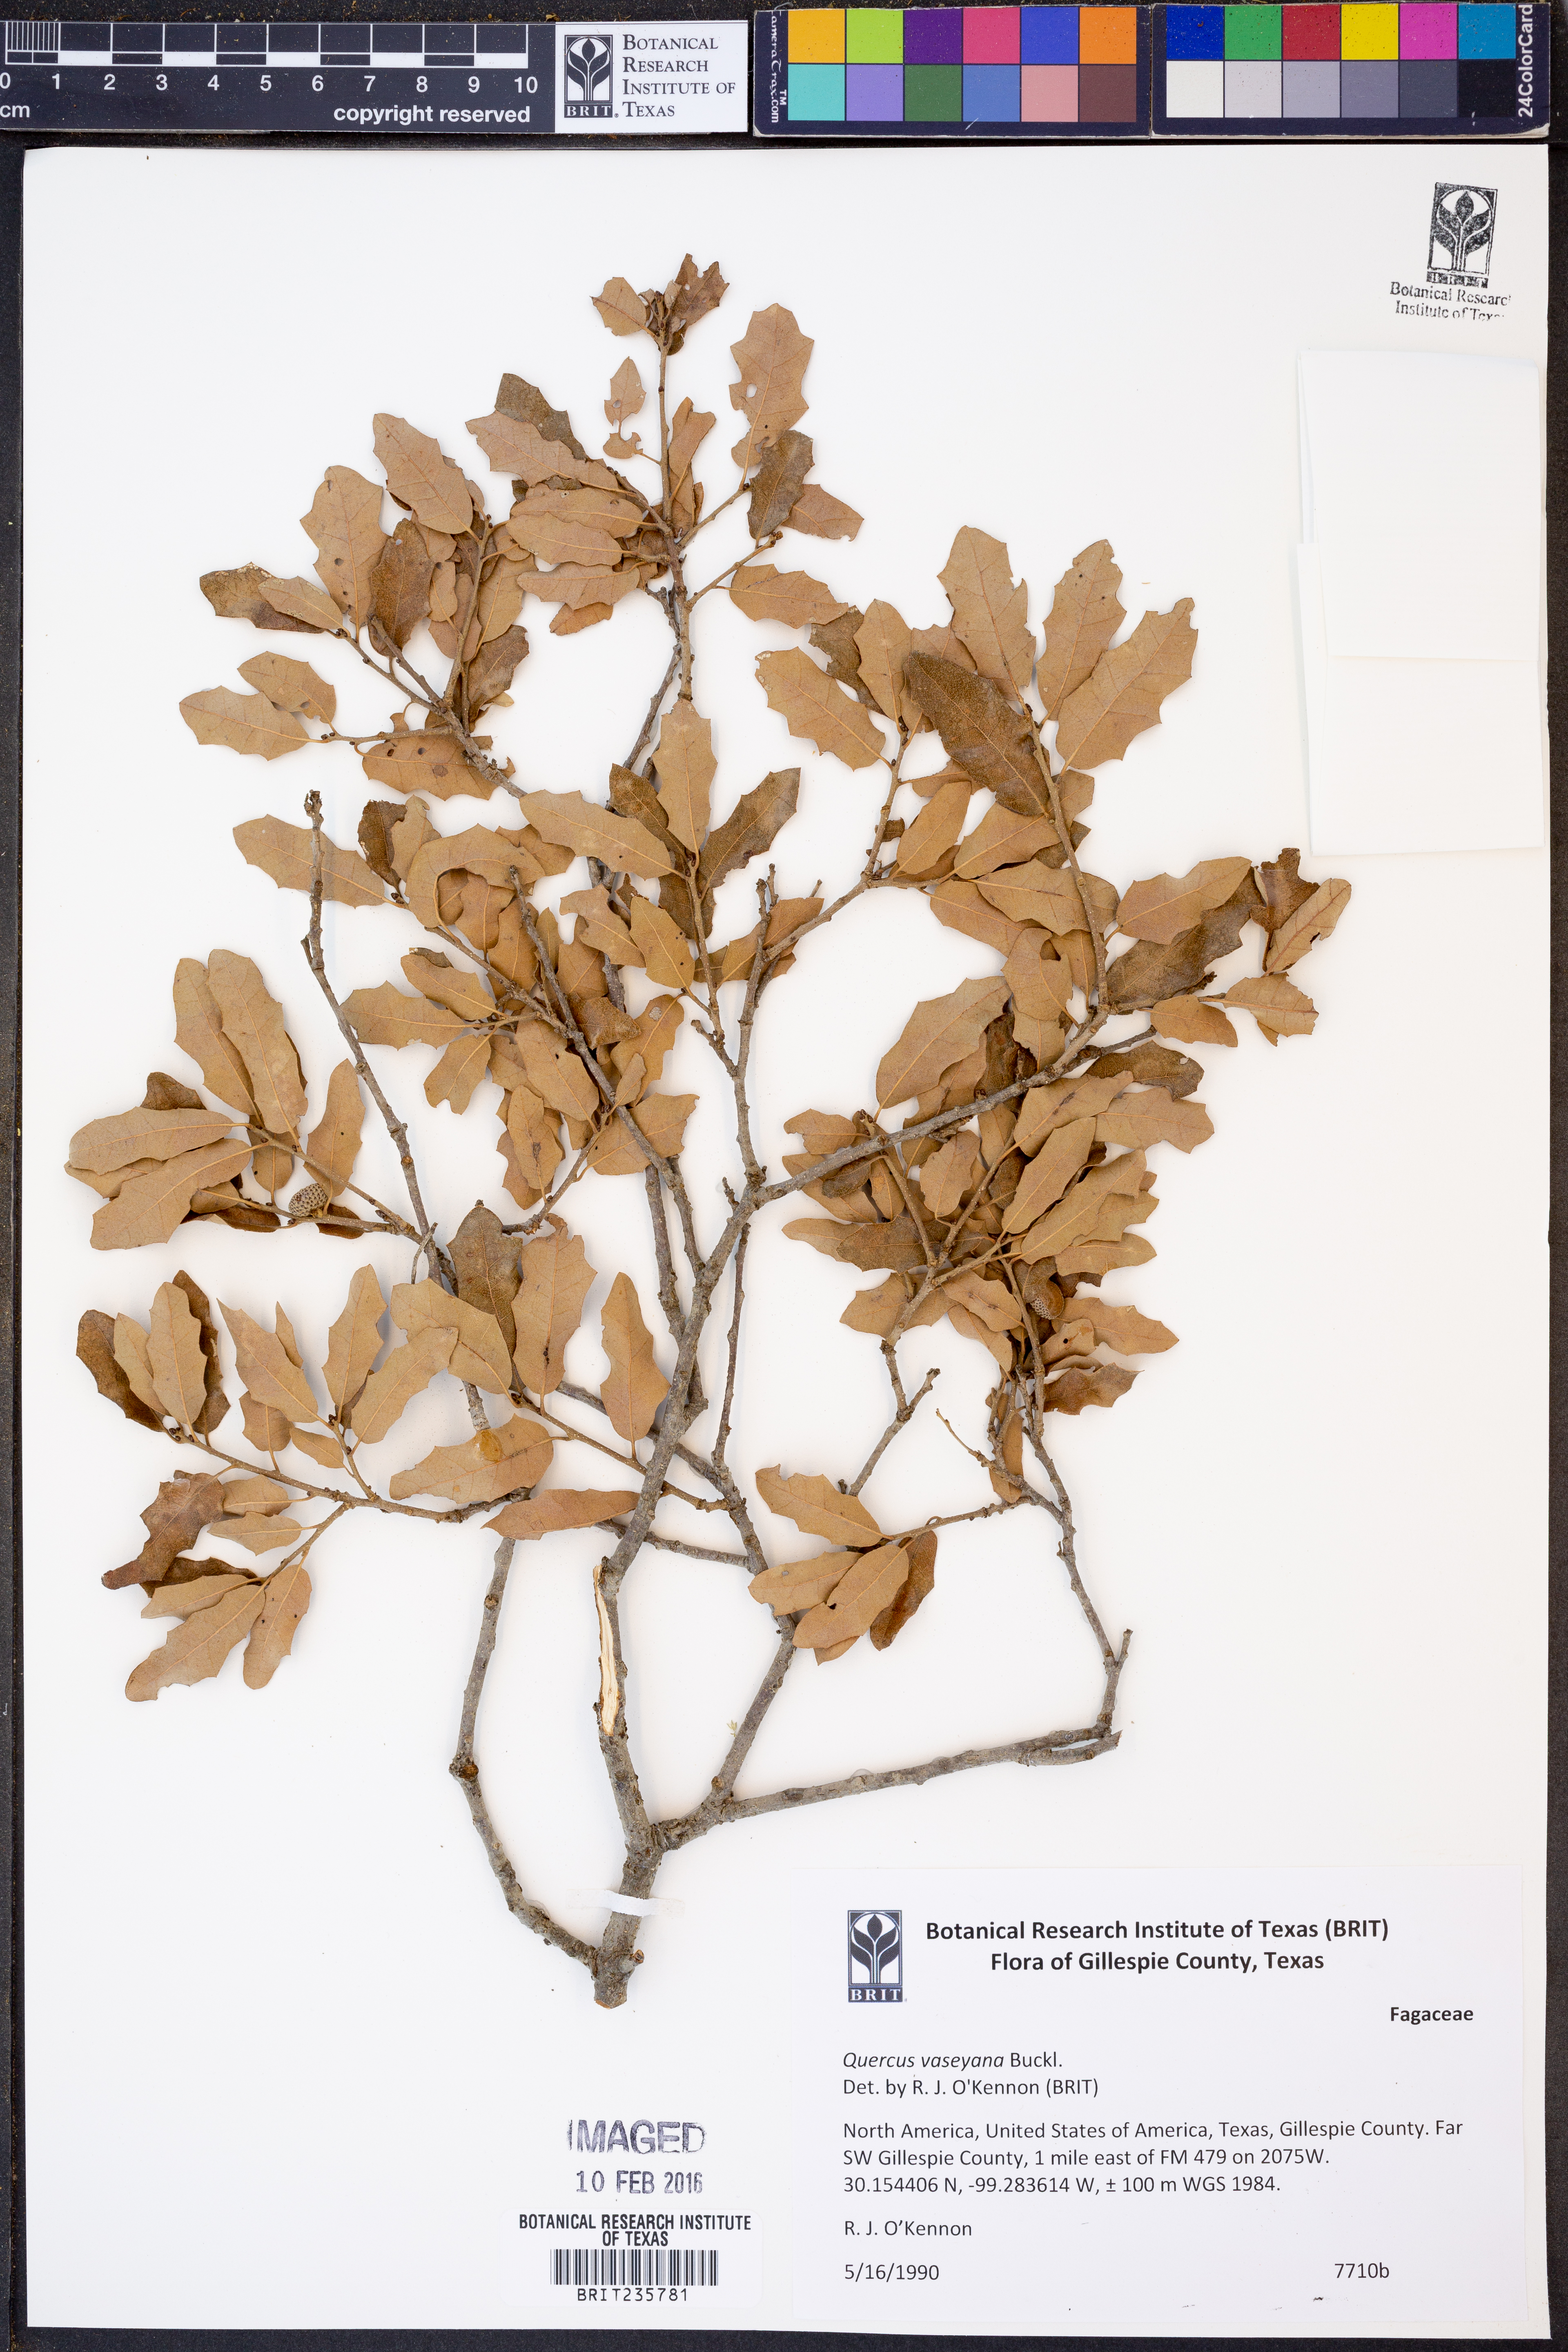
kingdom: Plantae
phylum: Tracheophyta
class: Magnoliopsida
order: Fagales
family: Fagaceae
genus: Quercus
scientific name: Quercus vaseyana
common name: Sandpaper oak
